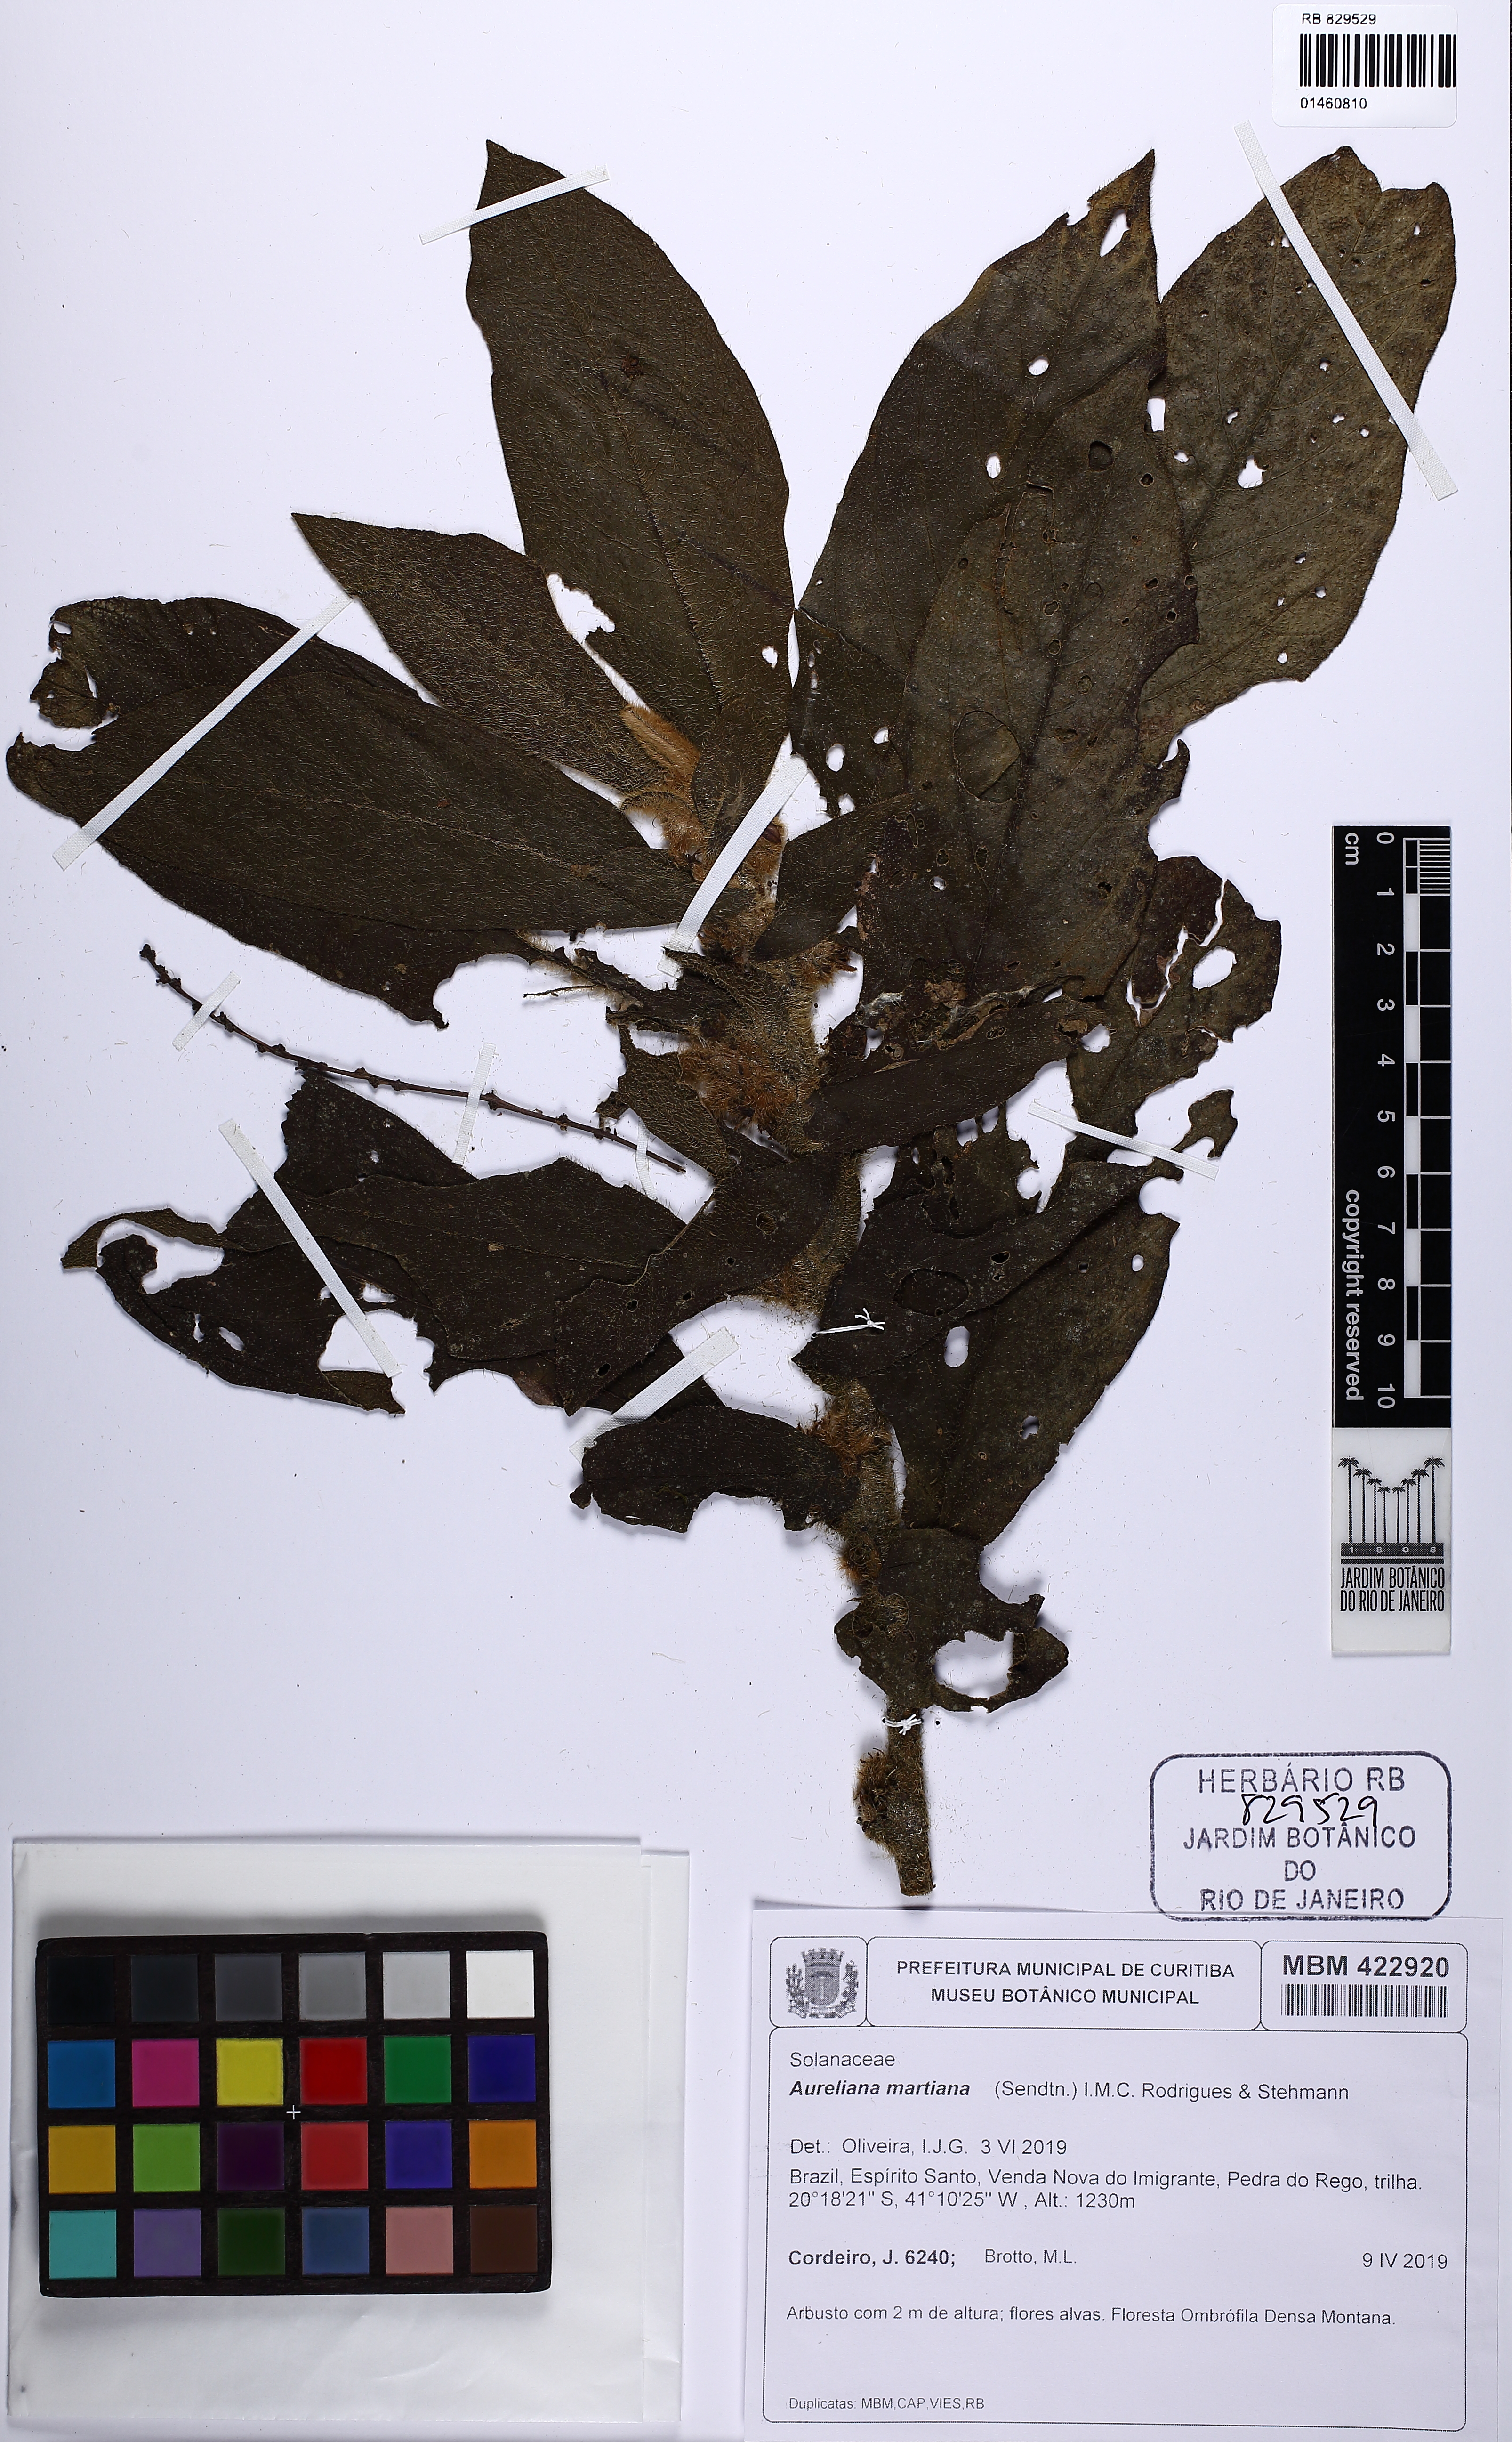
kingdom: Plantae
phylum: Tracheophyta
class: Magnoliopsida
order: Solanales
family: Solanaceae
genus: Athenaea
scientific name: Athenaea martiana
